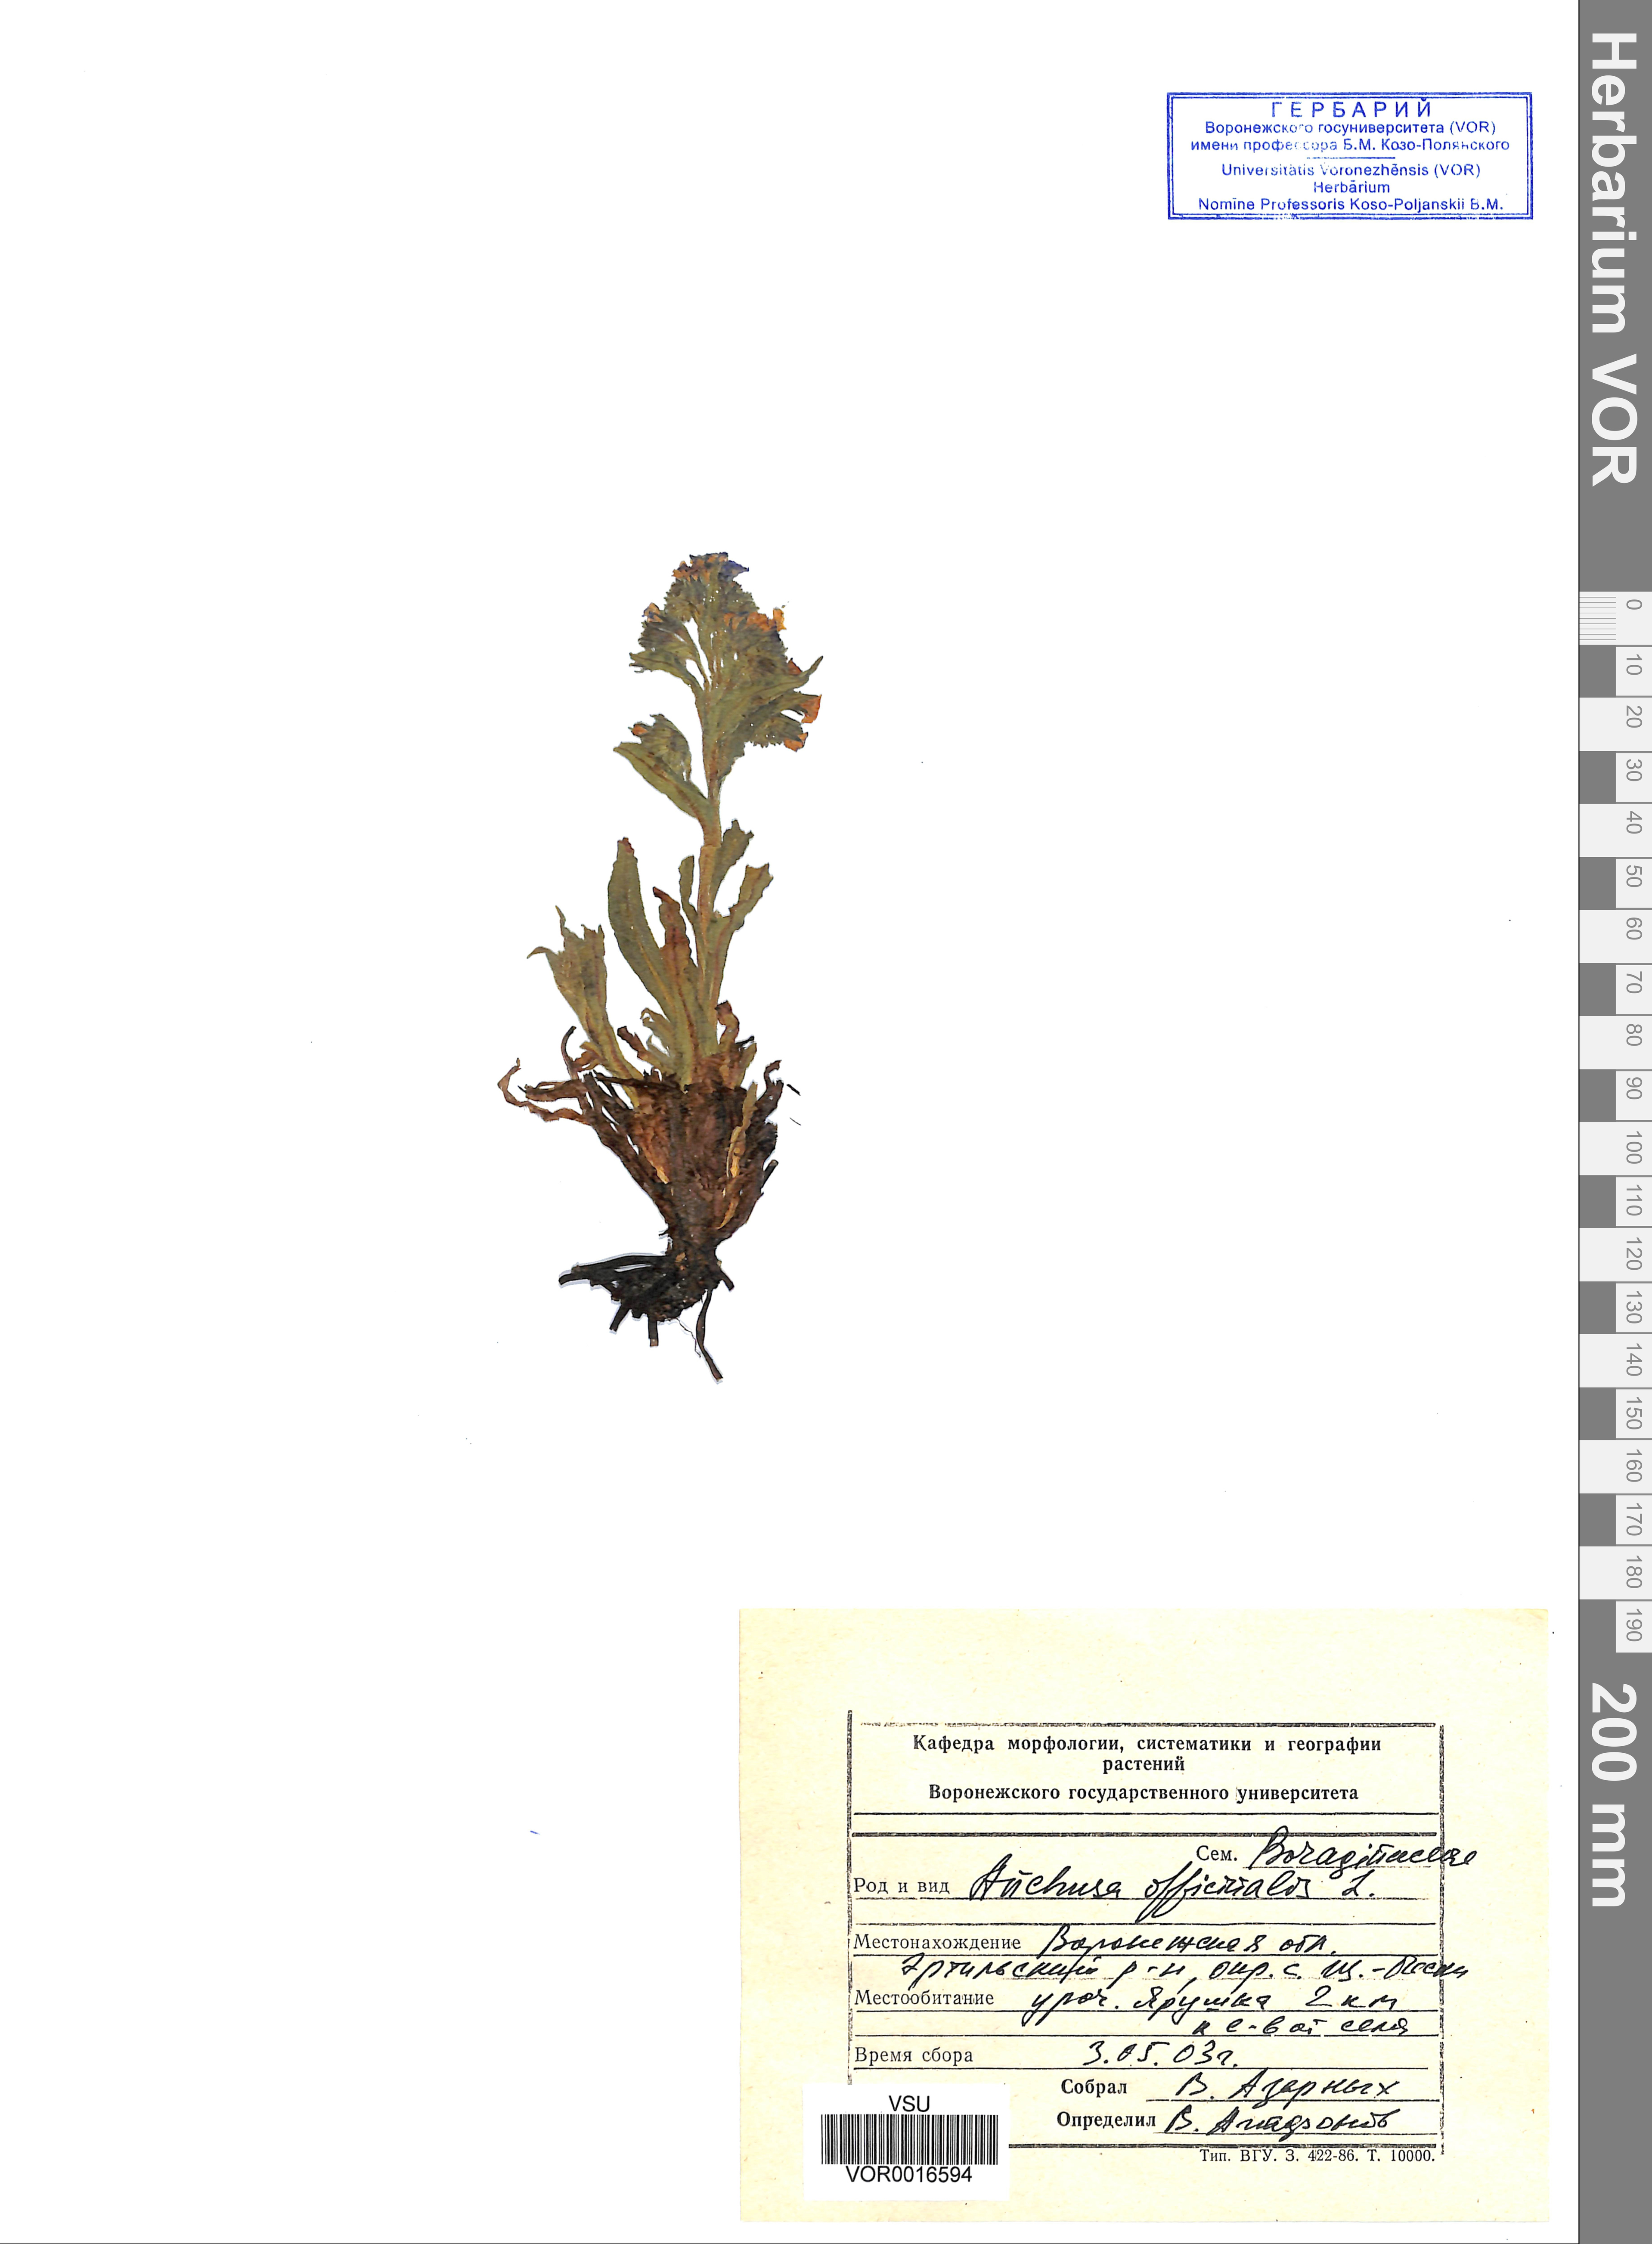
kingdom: Plantae
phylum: Tracheophyta
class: Magnoliopsida
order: Boraginales
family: Boraginaceae
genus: Anchusa
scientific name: Anchusa officinalis
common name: Alkanet
